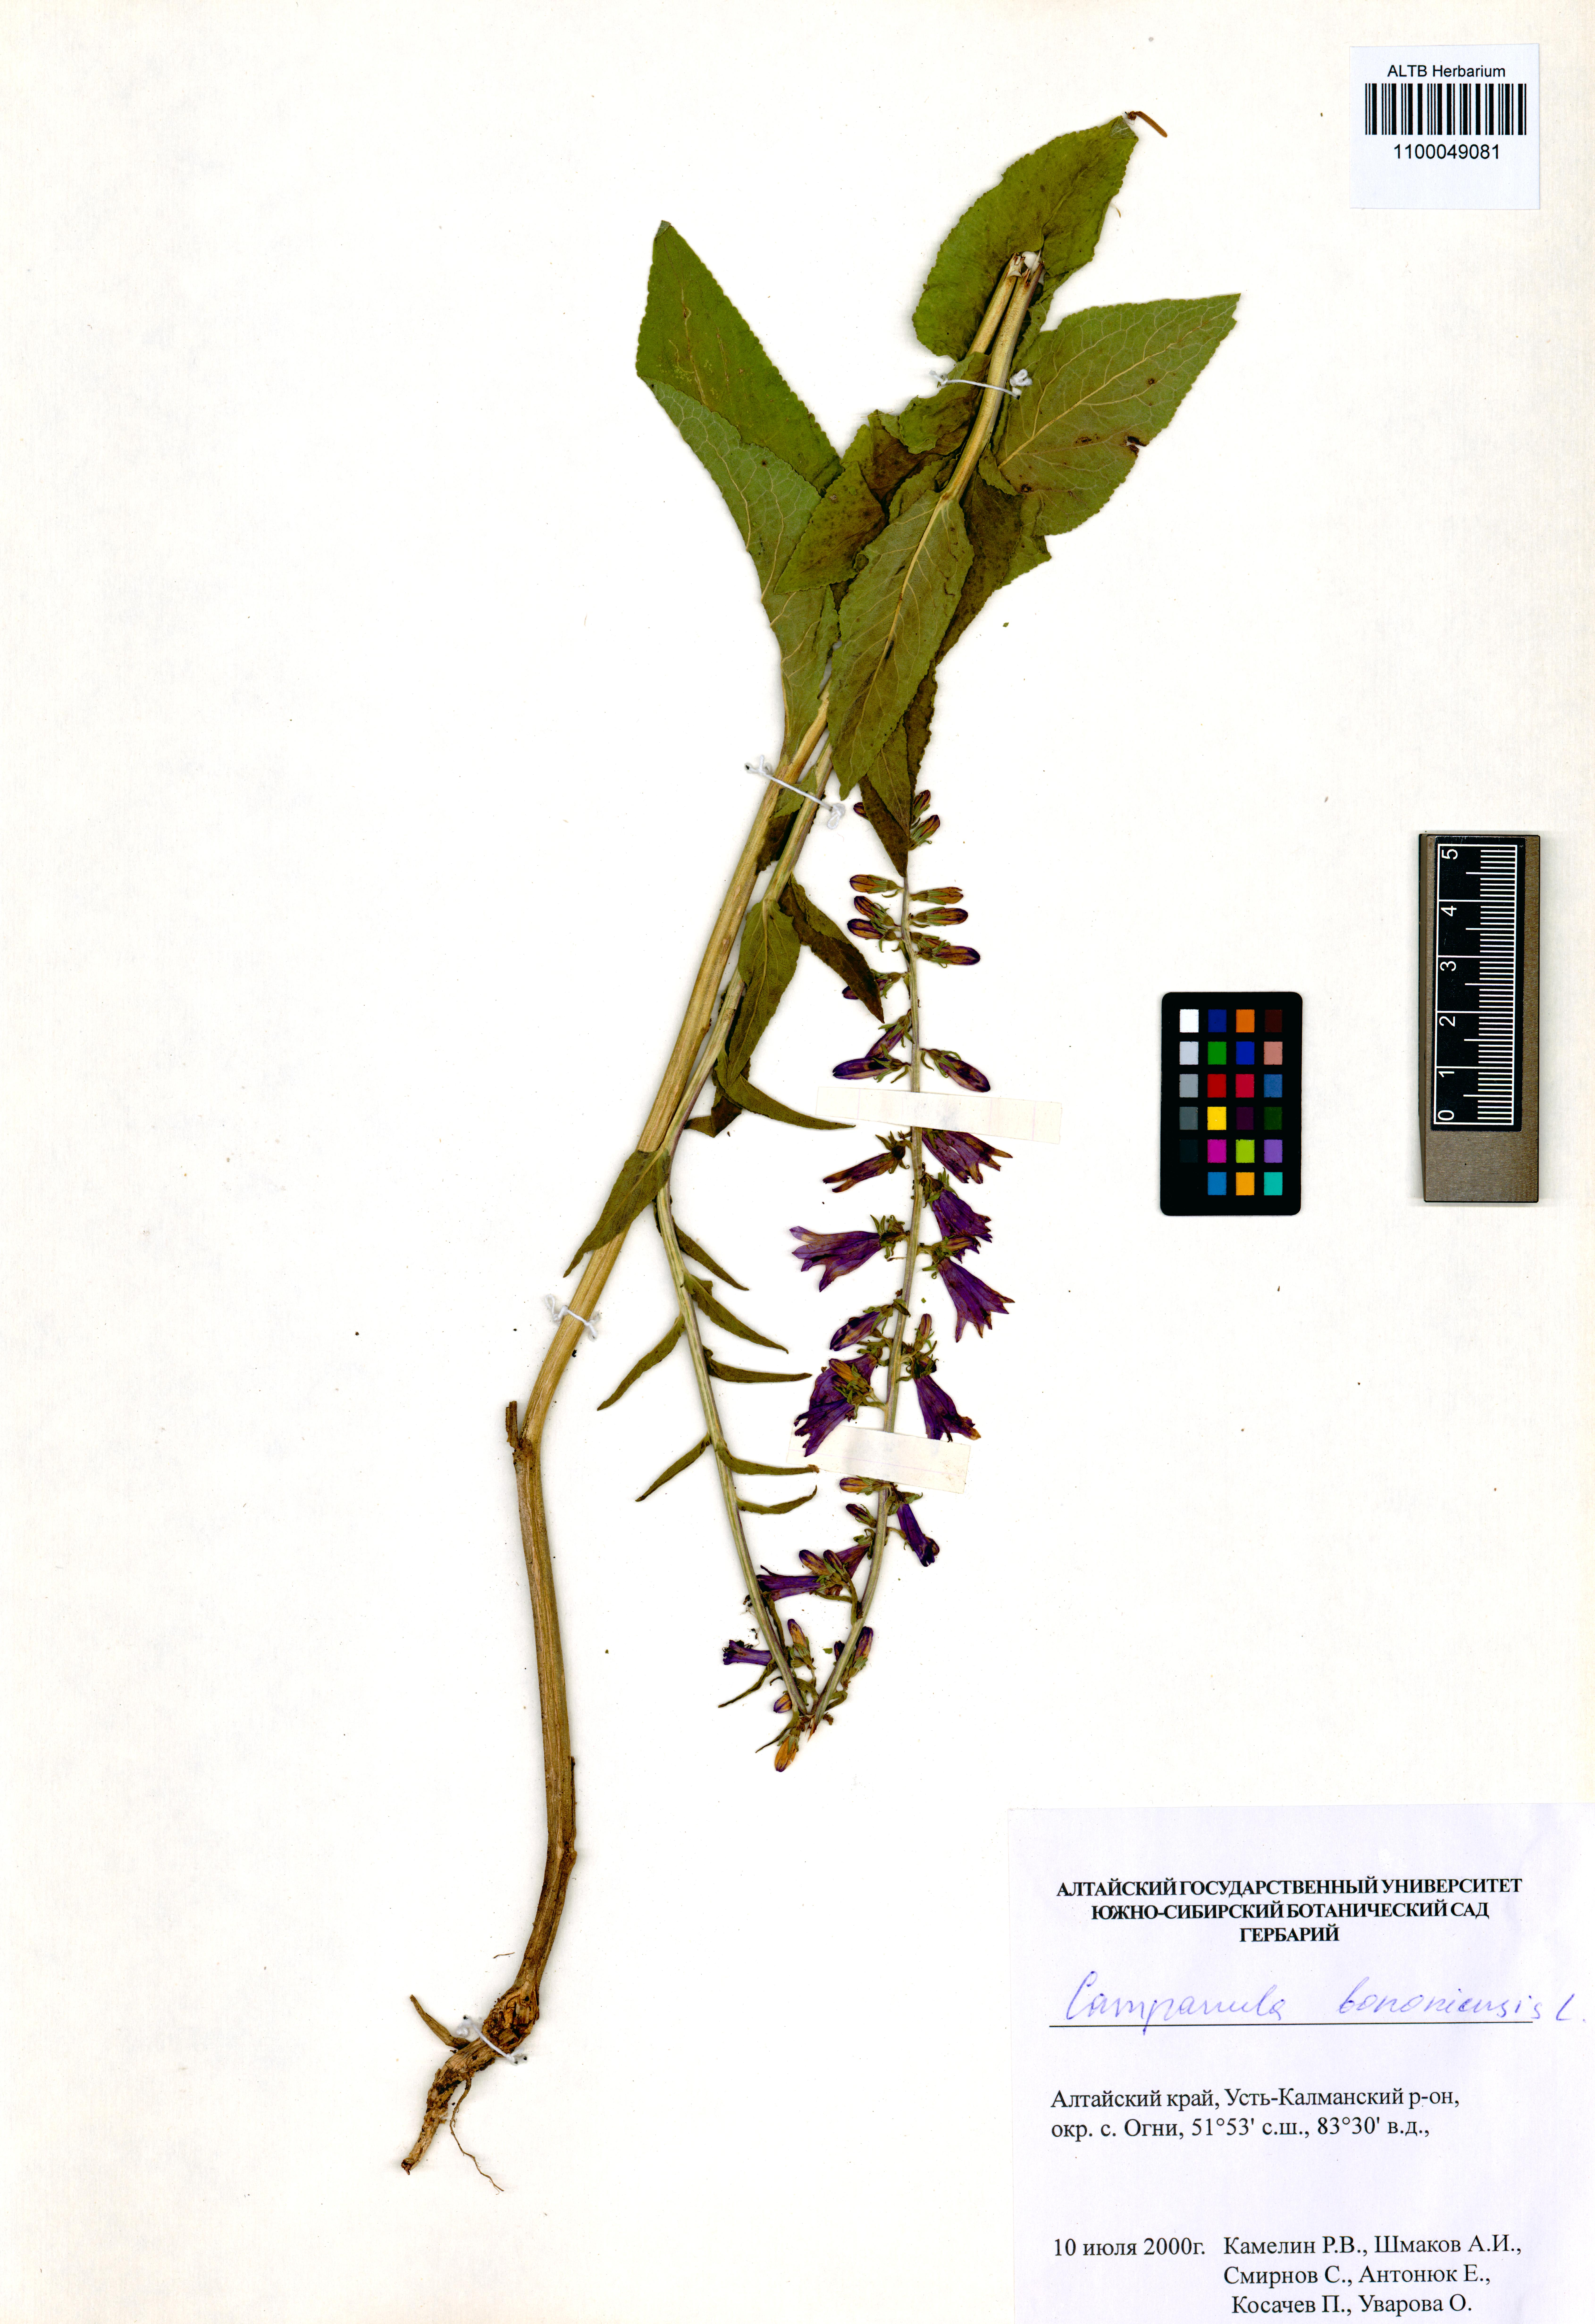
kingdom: Plantae
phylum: Tracheophyta
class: Magnoliopsida
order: Asterales
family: Campanulaceae
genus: Campanula
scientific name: Campanula bononiensis
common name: Pale bellflower
